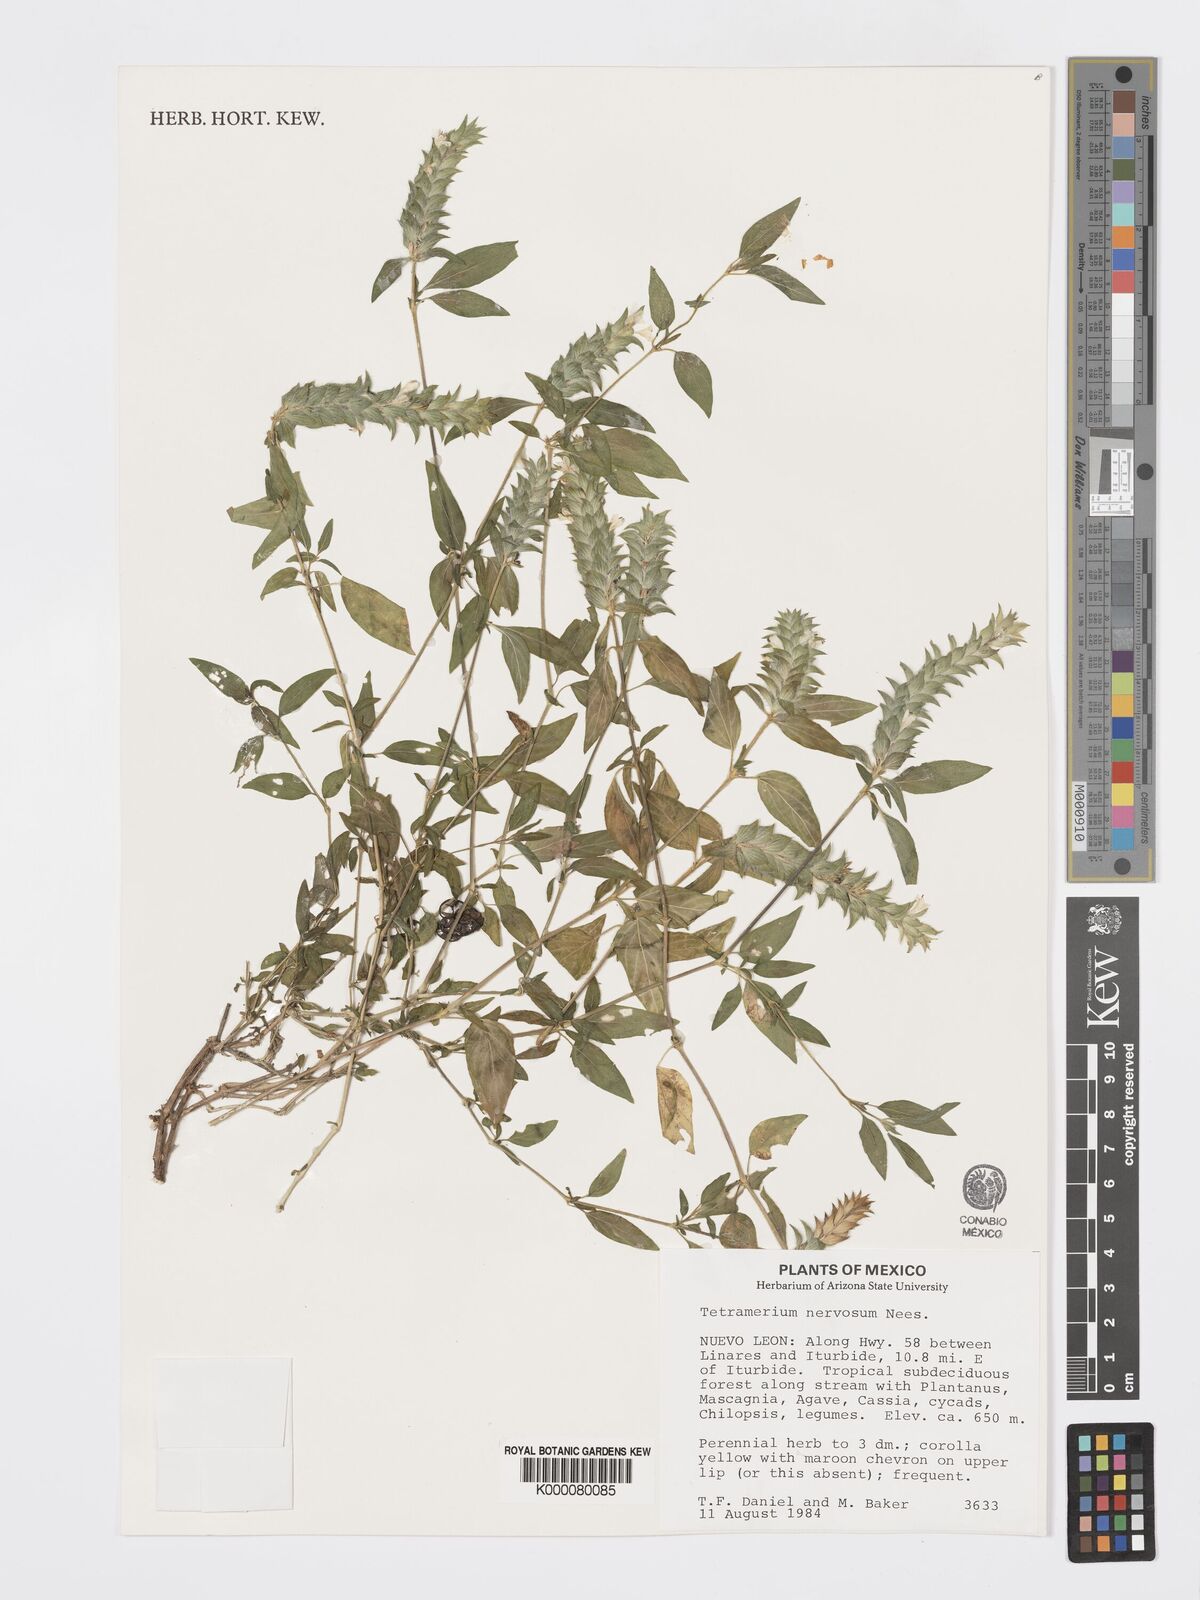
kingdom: Plantae
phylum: Tracheophyta
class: Magnoliopsida
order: Lamiales
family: Acanthaceae
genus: Tetramerium
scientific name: Tetramerium nervosum
